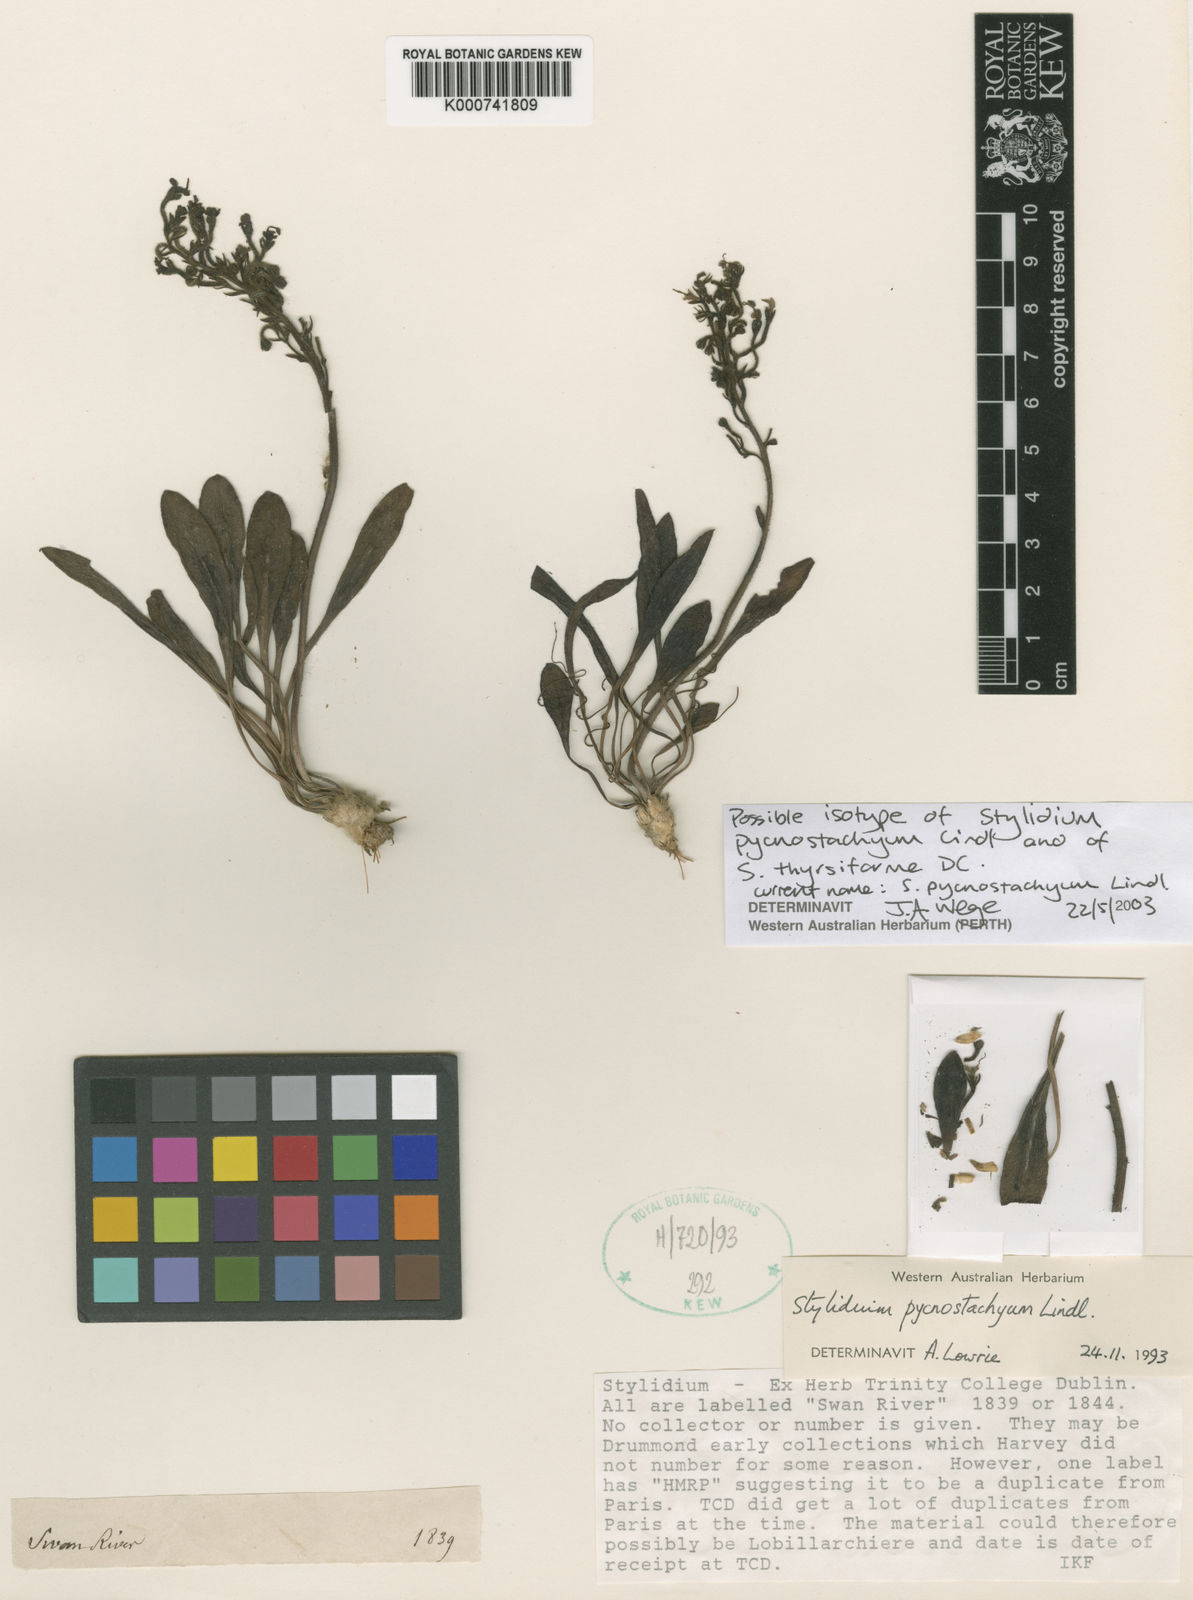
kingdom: Plantae
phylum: Tracheophyta
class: Magnoliopsida
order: Asterales
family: Stylidiaceae
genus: Stylidium
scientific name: Stylidium pycnostachyum
